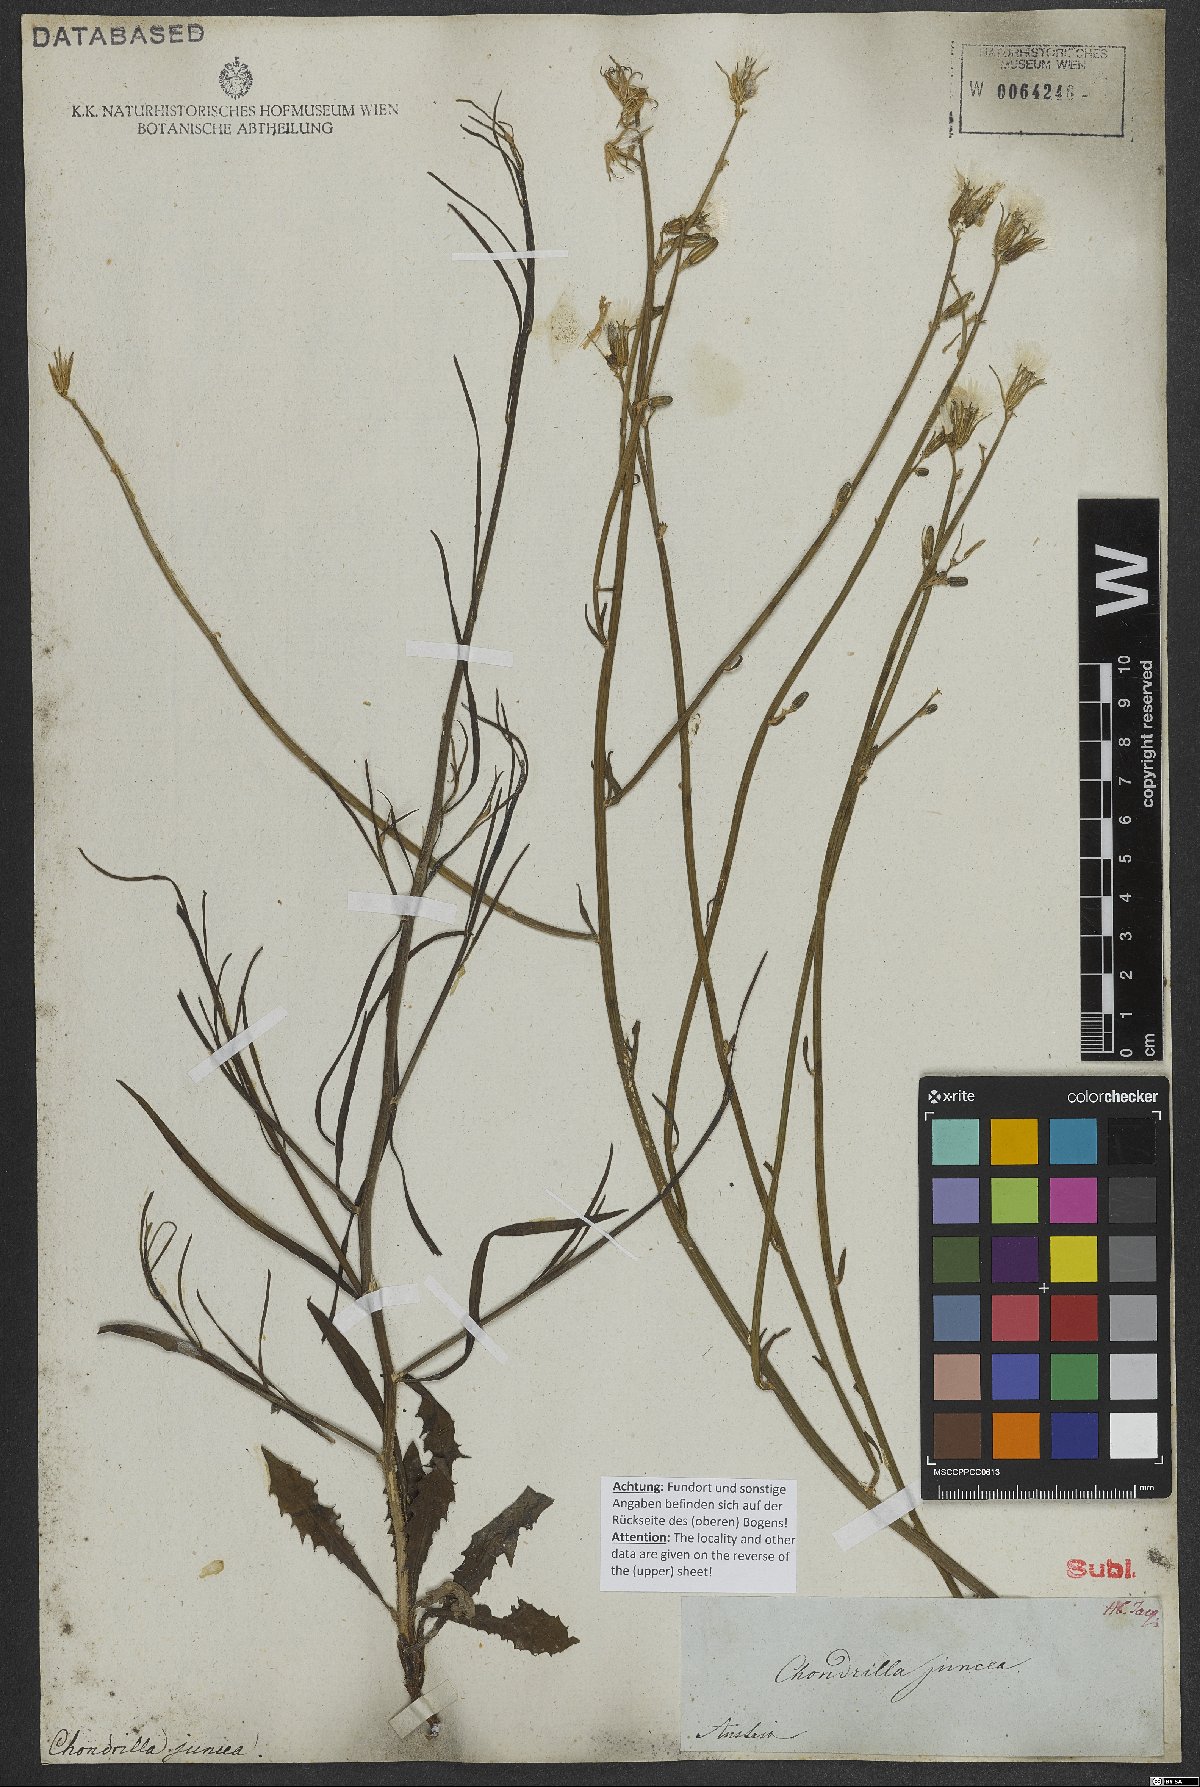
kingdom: Plantae
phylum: Tracheophyta
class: Magnoliopsida
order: Asterales
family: Asteraceae
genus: Chondrilla
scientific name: Chondrilla juncea
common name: Skeleton weed
